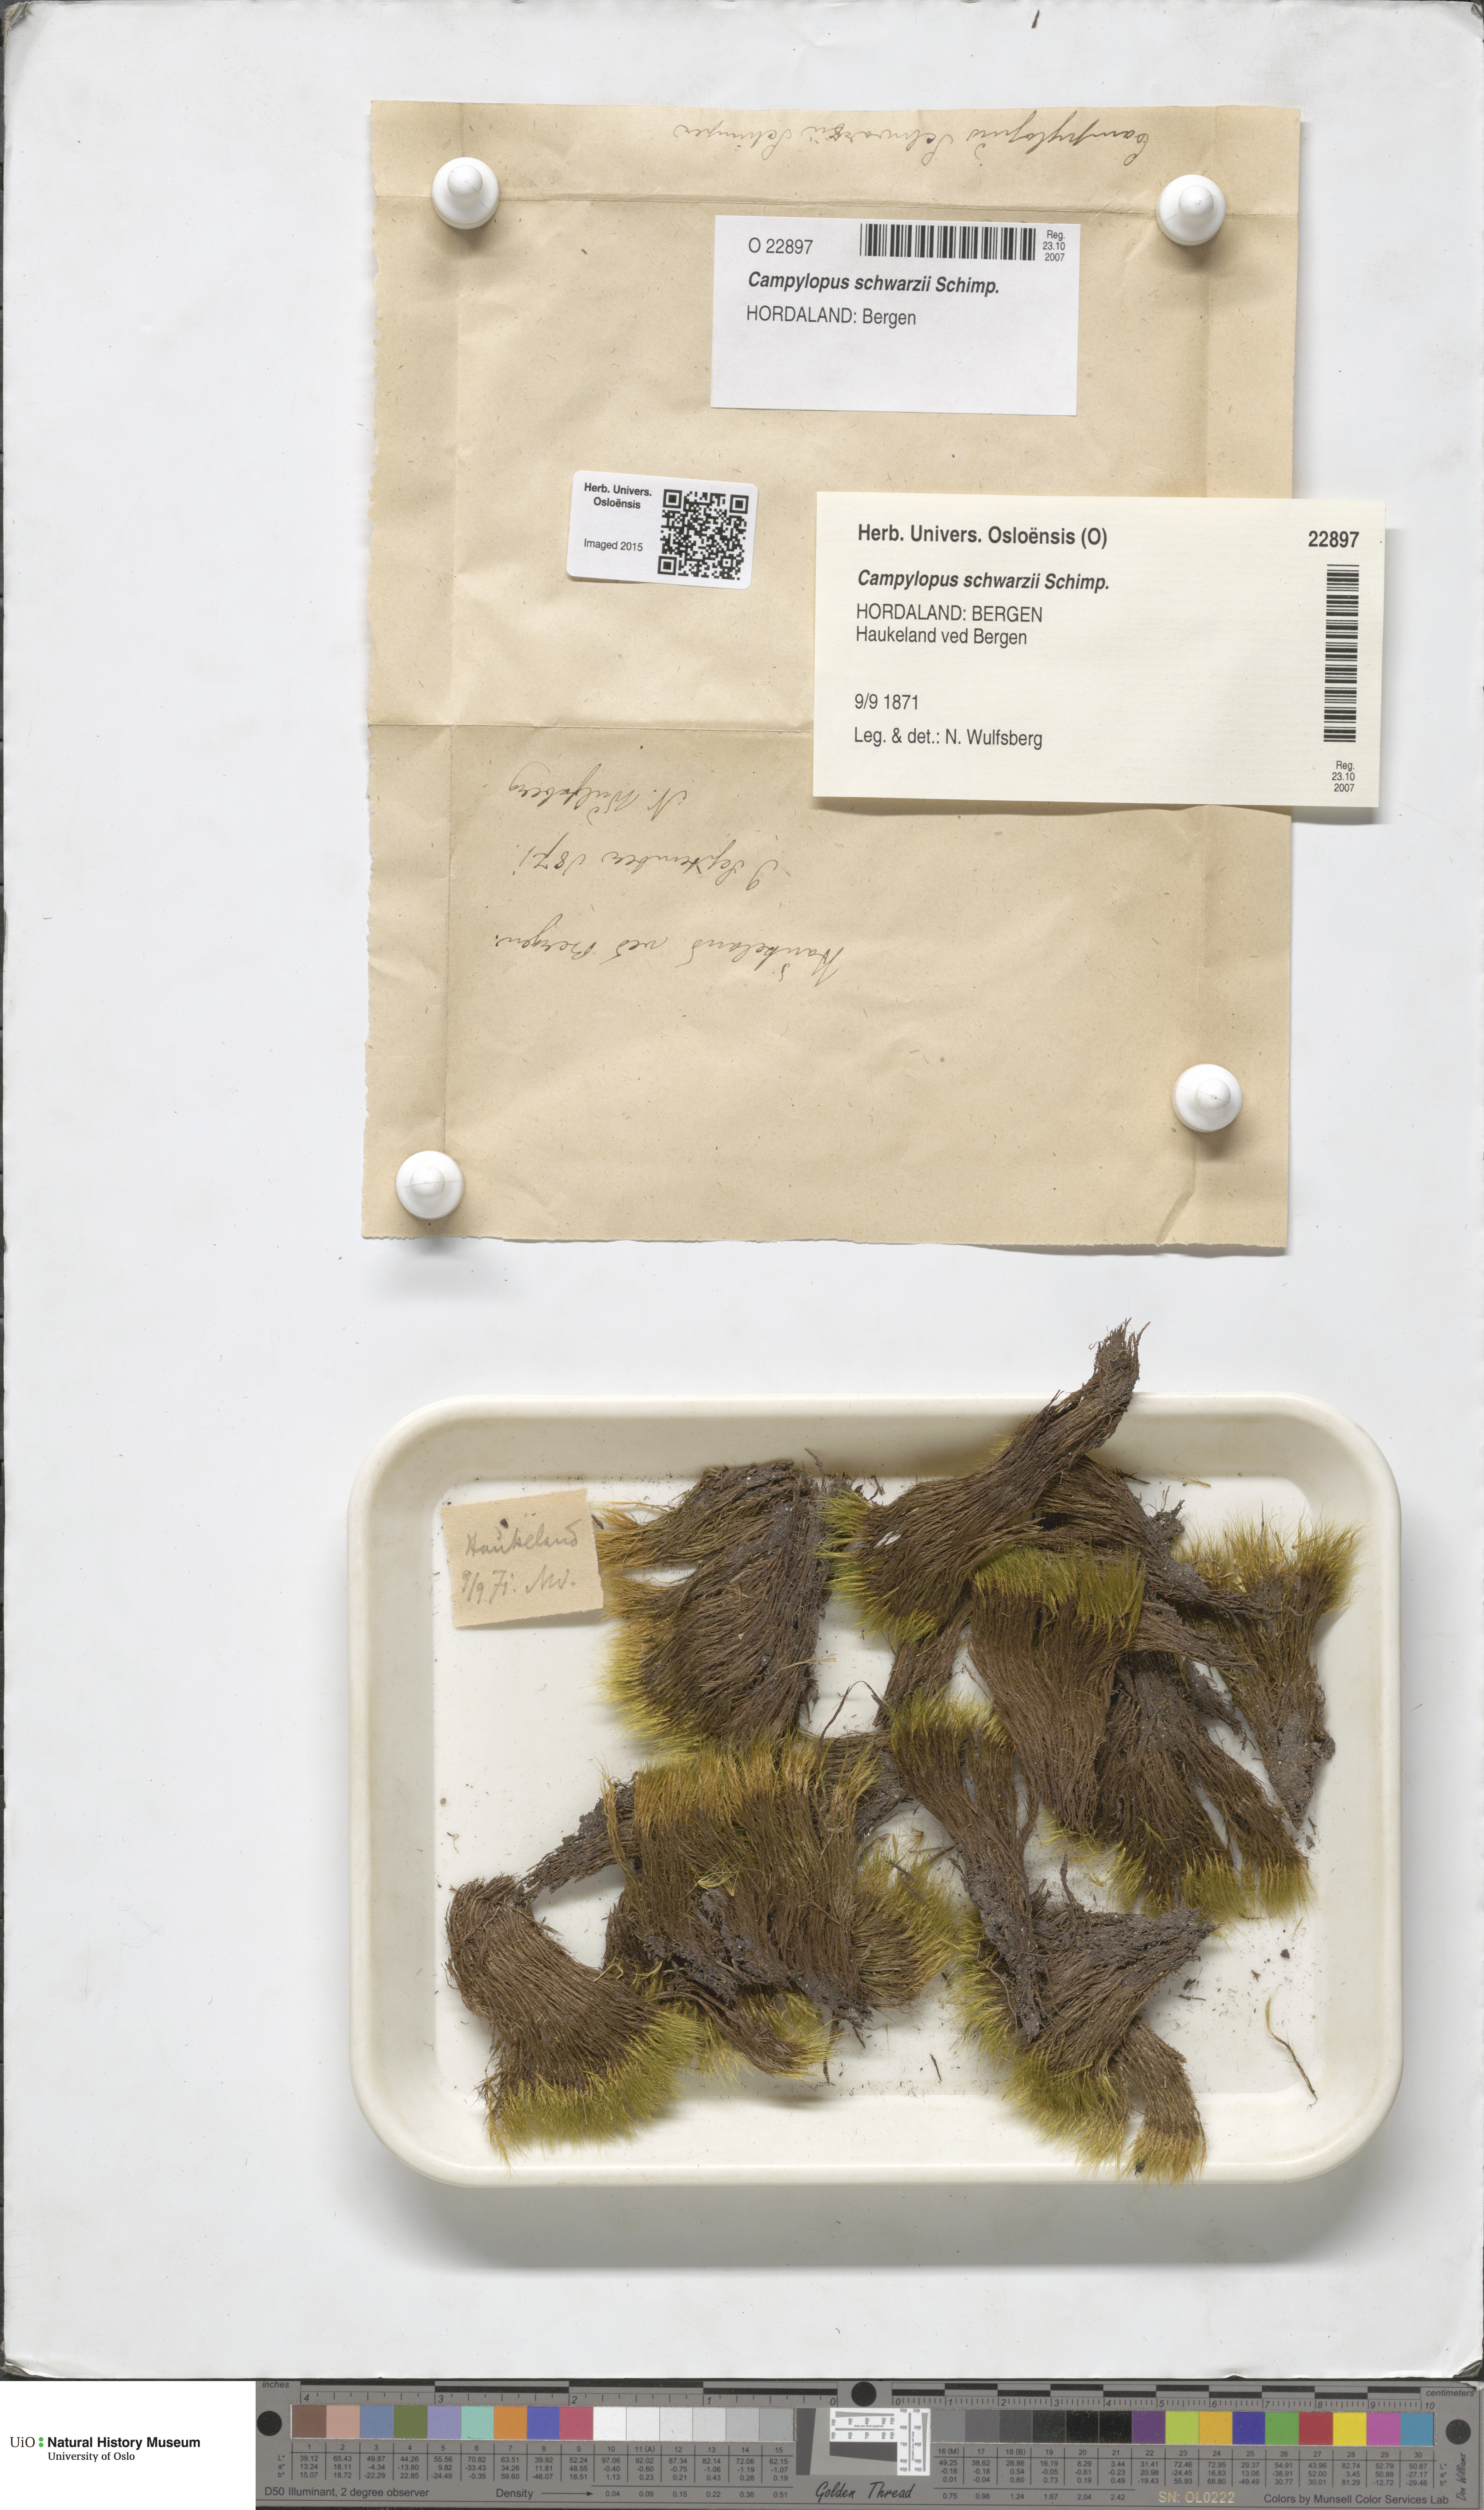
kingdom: Plantae
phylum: Bryophyta
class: Bryopsida
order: Dicranales
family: Leucobryaceae
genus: Campylopus
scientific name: Campylopus gracilis
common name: Schwarz's swan-neck moss
